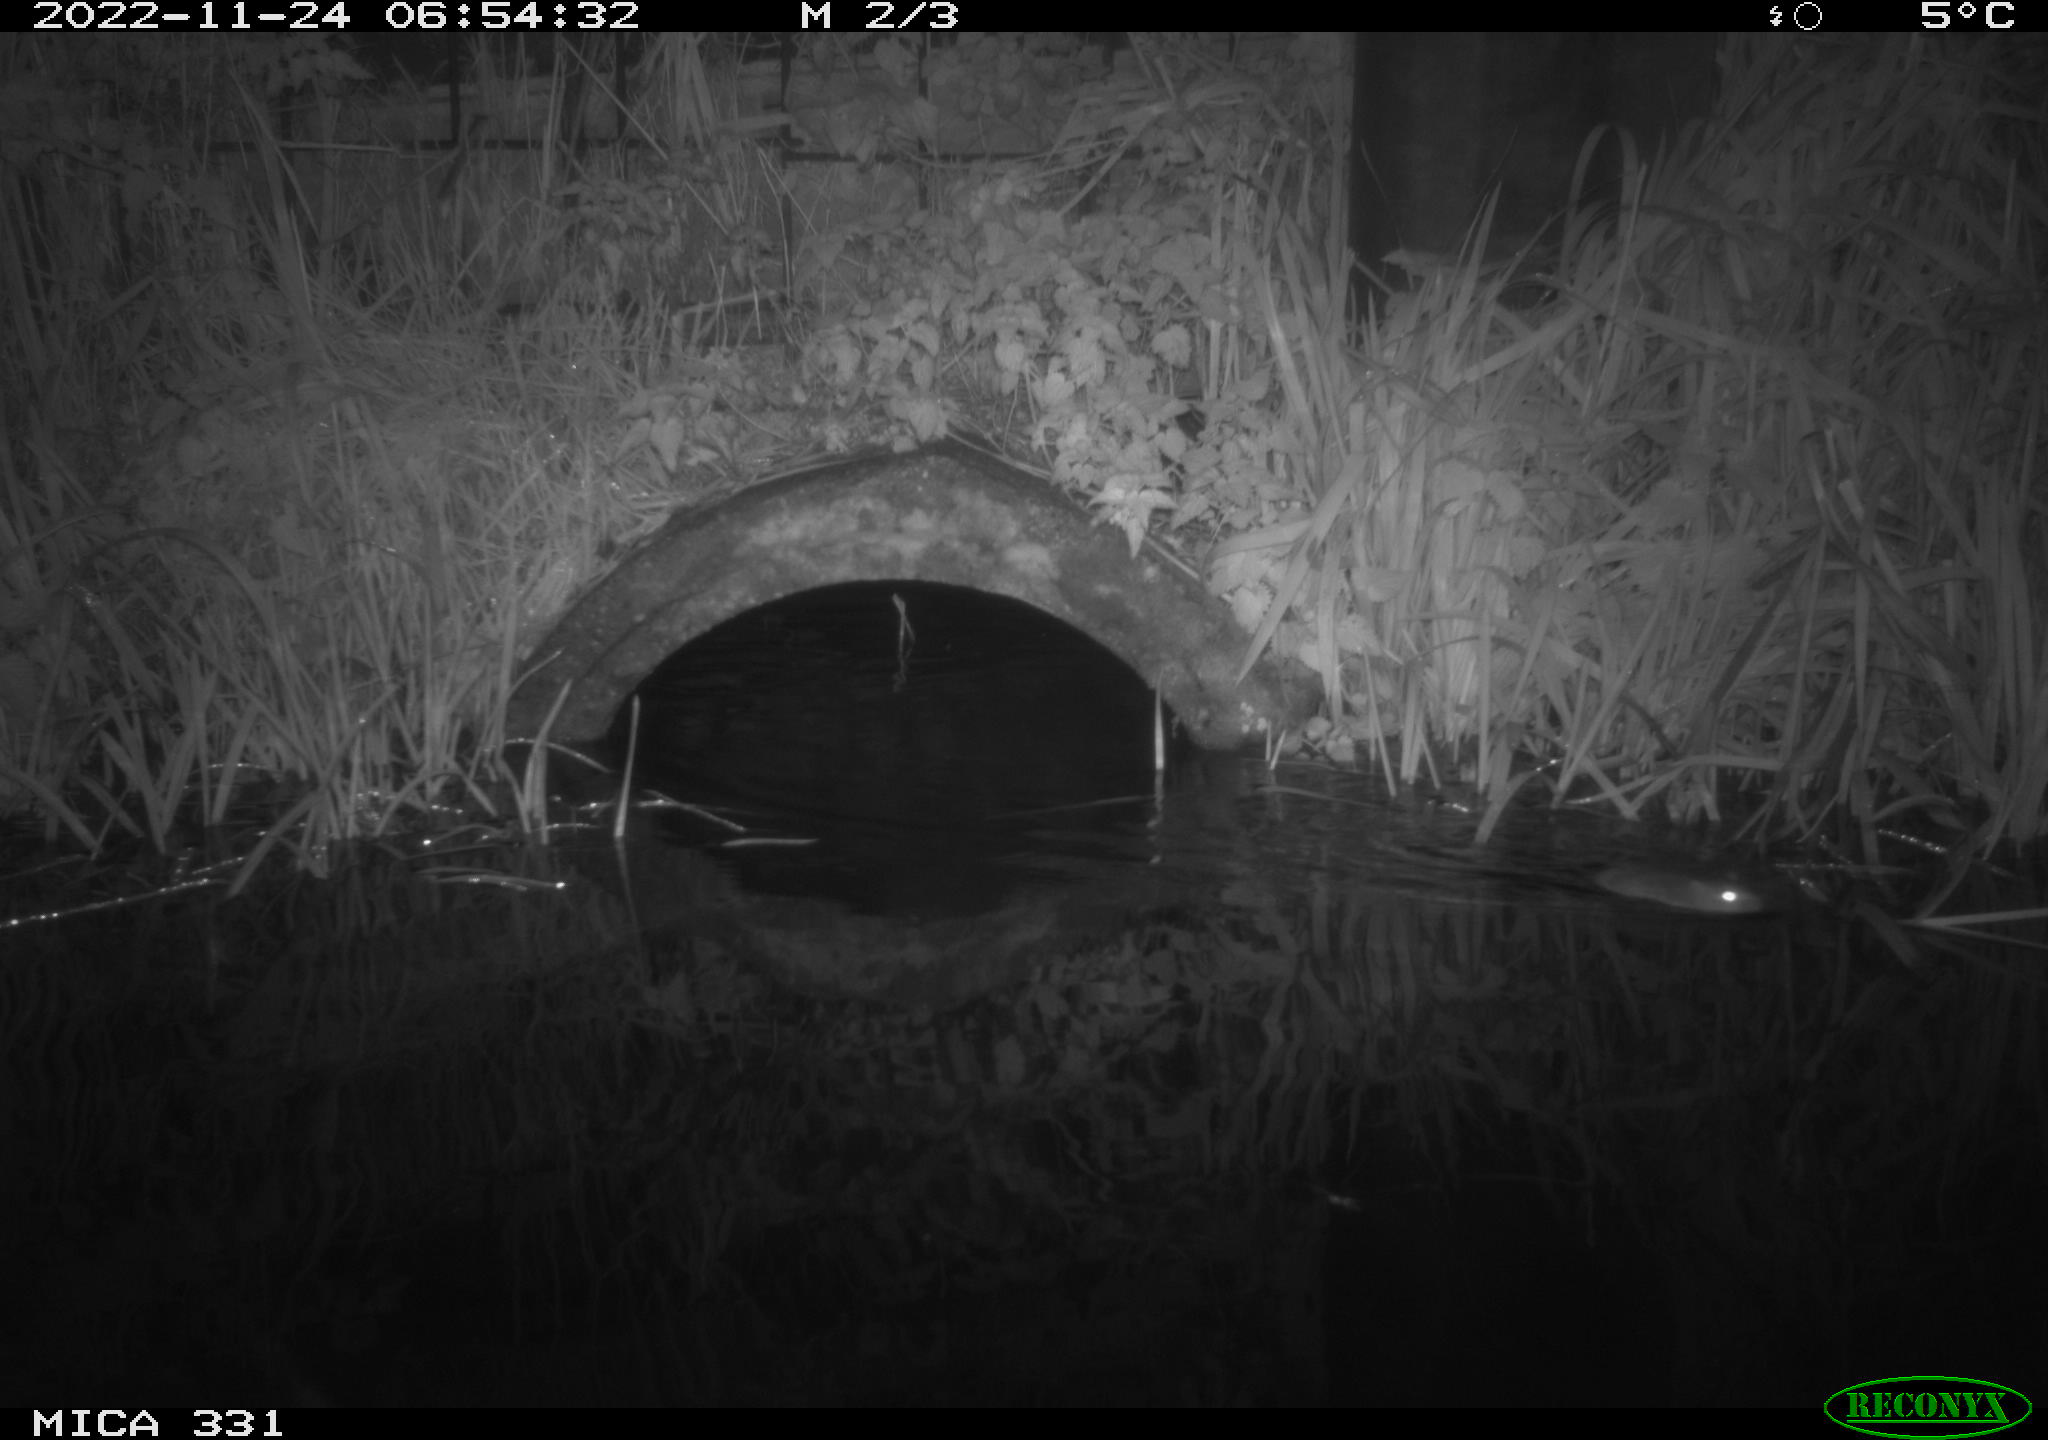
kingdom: Animalia
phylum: Chordata
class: Mammalia
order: Rodentia
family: Muridae
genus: Rattus
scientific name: Rattus norvegicus
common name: Brown rat
